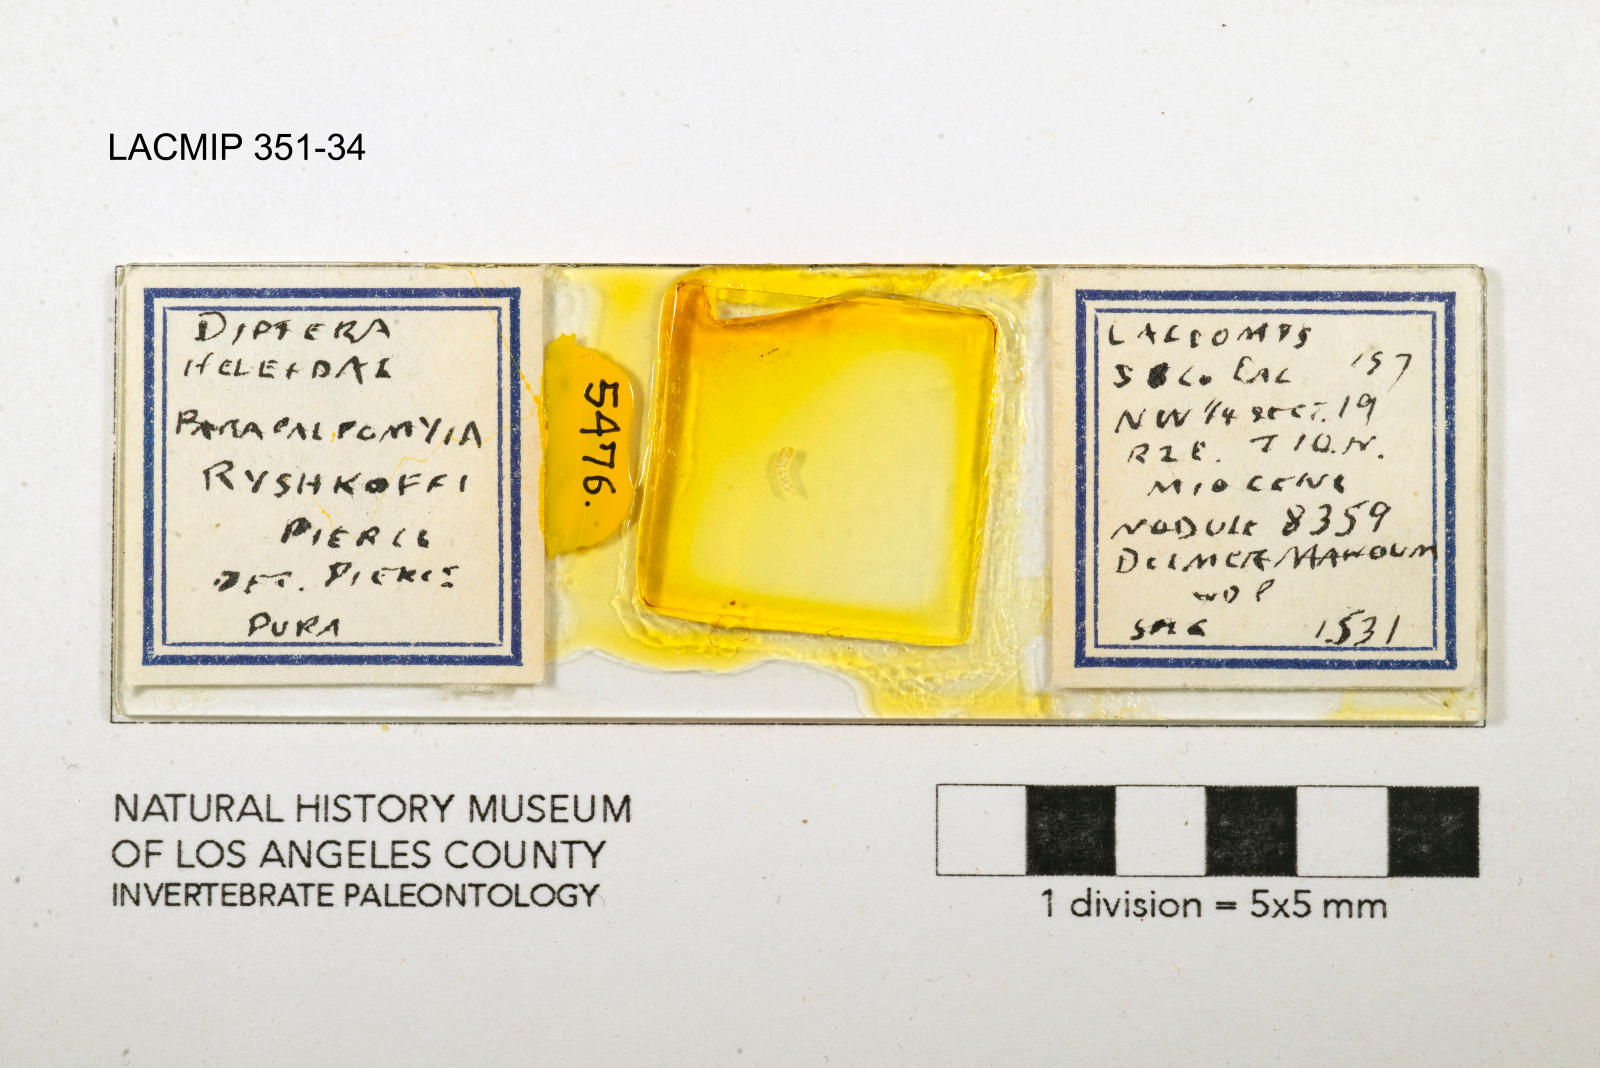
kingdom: Animalia
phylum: Arthropoda
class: Insecta
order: Diptera
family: Ceratopogonidae
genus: Palpomyia
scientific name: Palpomyia ryshkoffi
